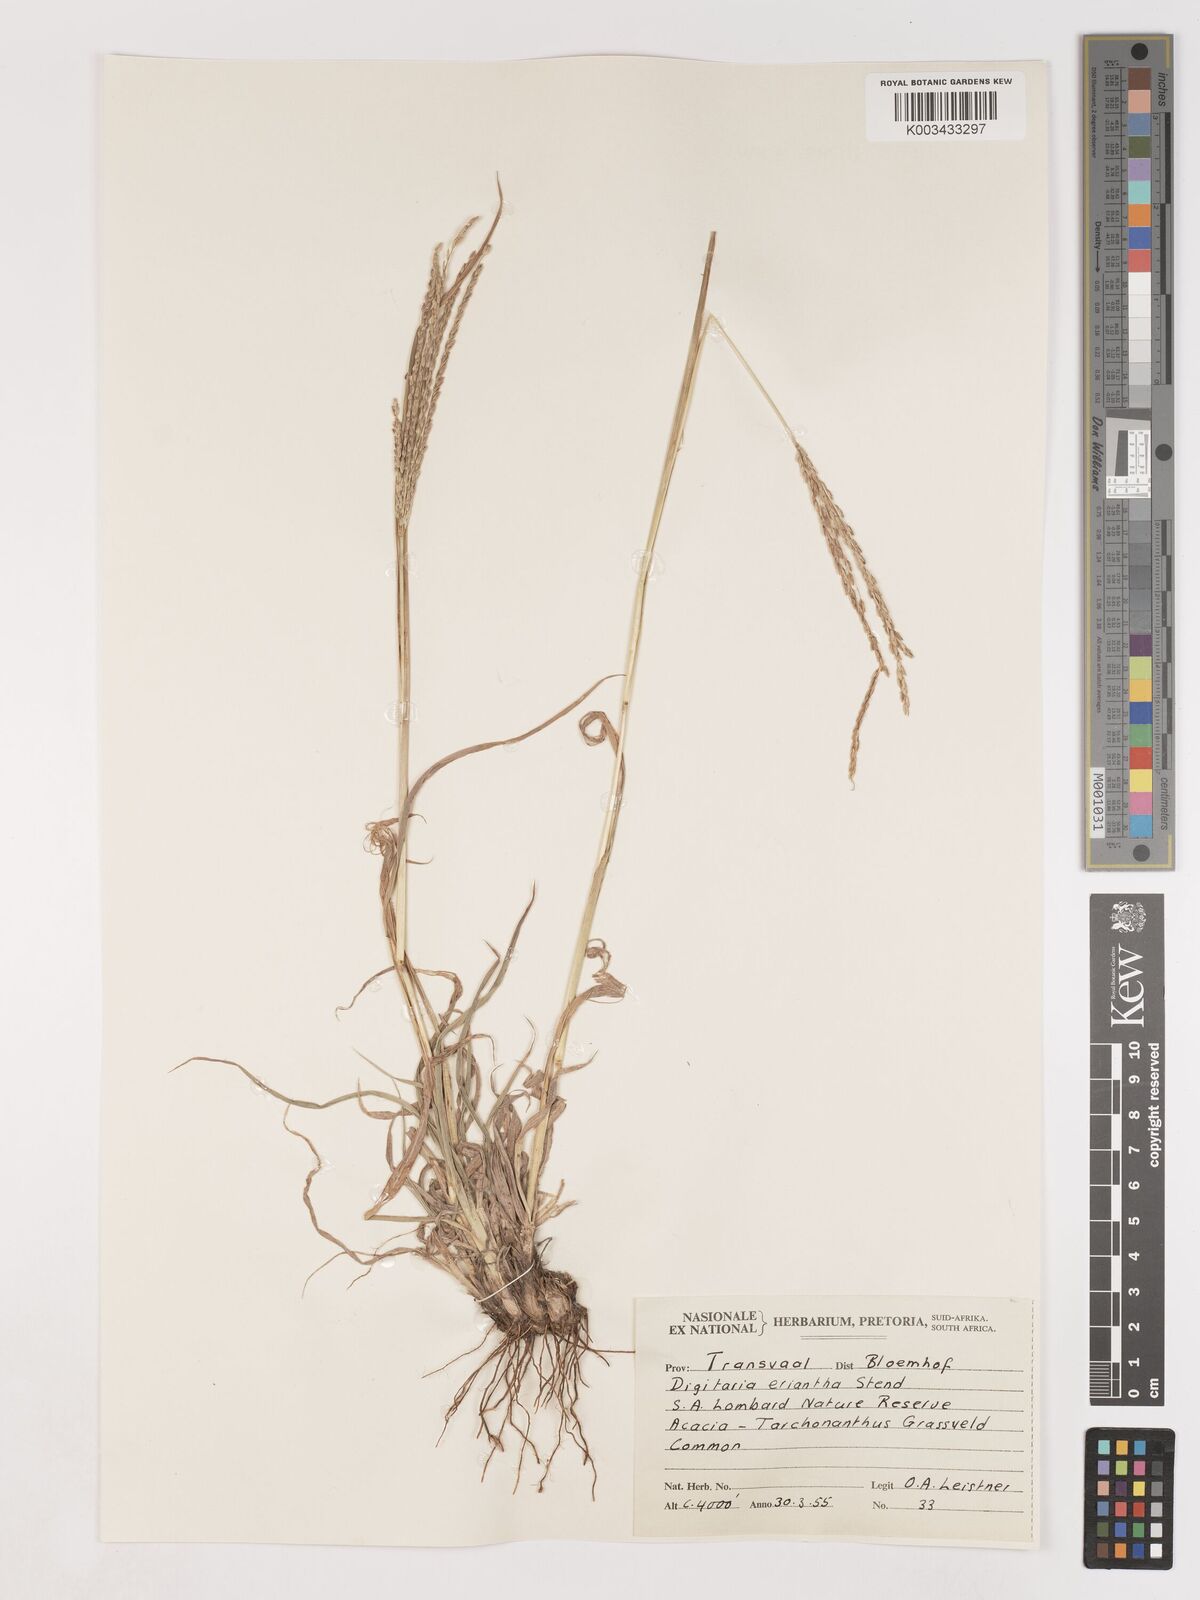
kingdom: Plantae
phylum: Tracheophyta
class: Liliopsida
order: Poales
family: Poaceae
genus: Digitaria
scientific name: Digitaria eriantha
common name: Digitgrass
